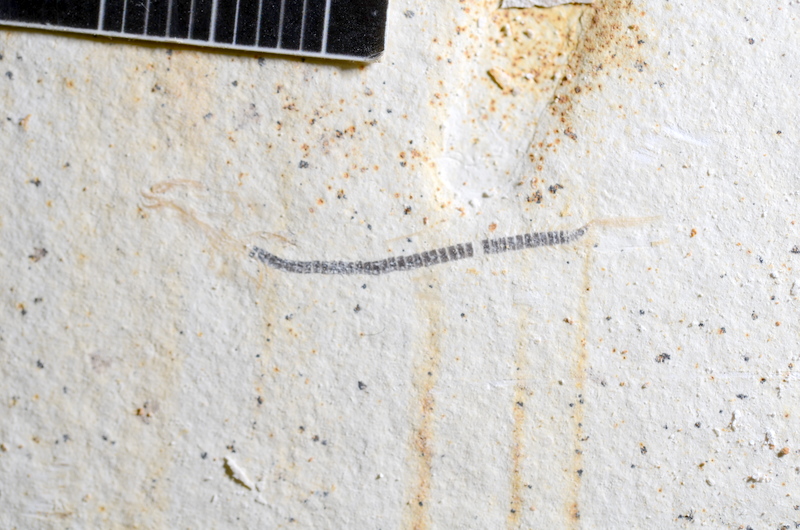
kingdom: Animalia
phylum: Chordata
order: Salmoniformes
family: Orthogonikleithridae
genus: Orthogonikleithrus
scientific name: Orthogonikleithrus hoelli
